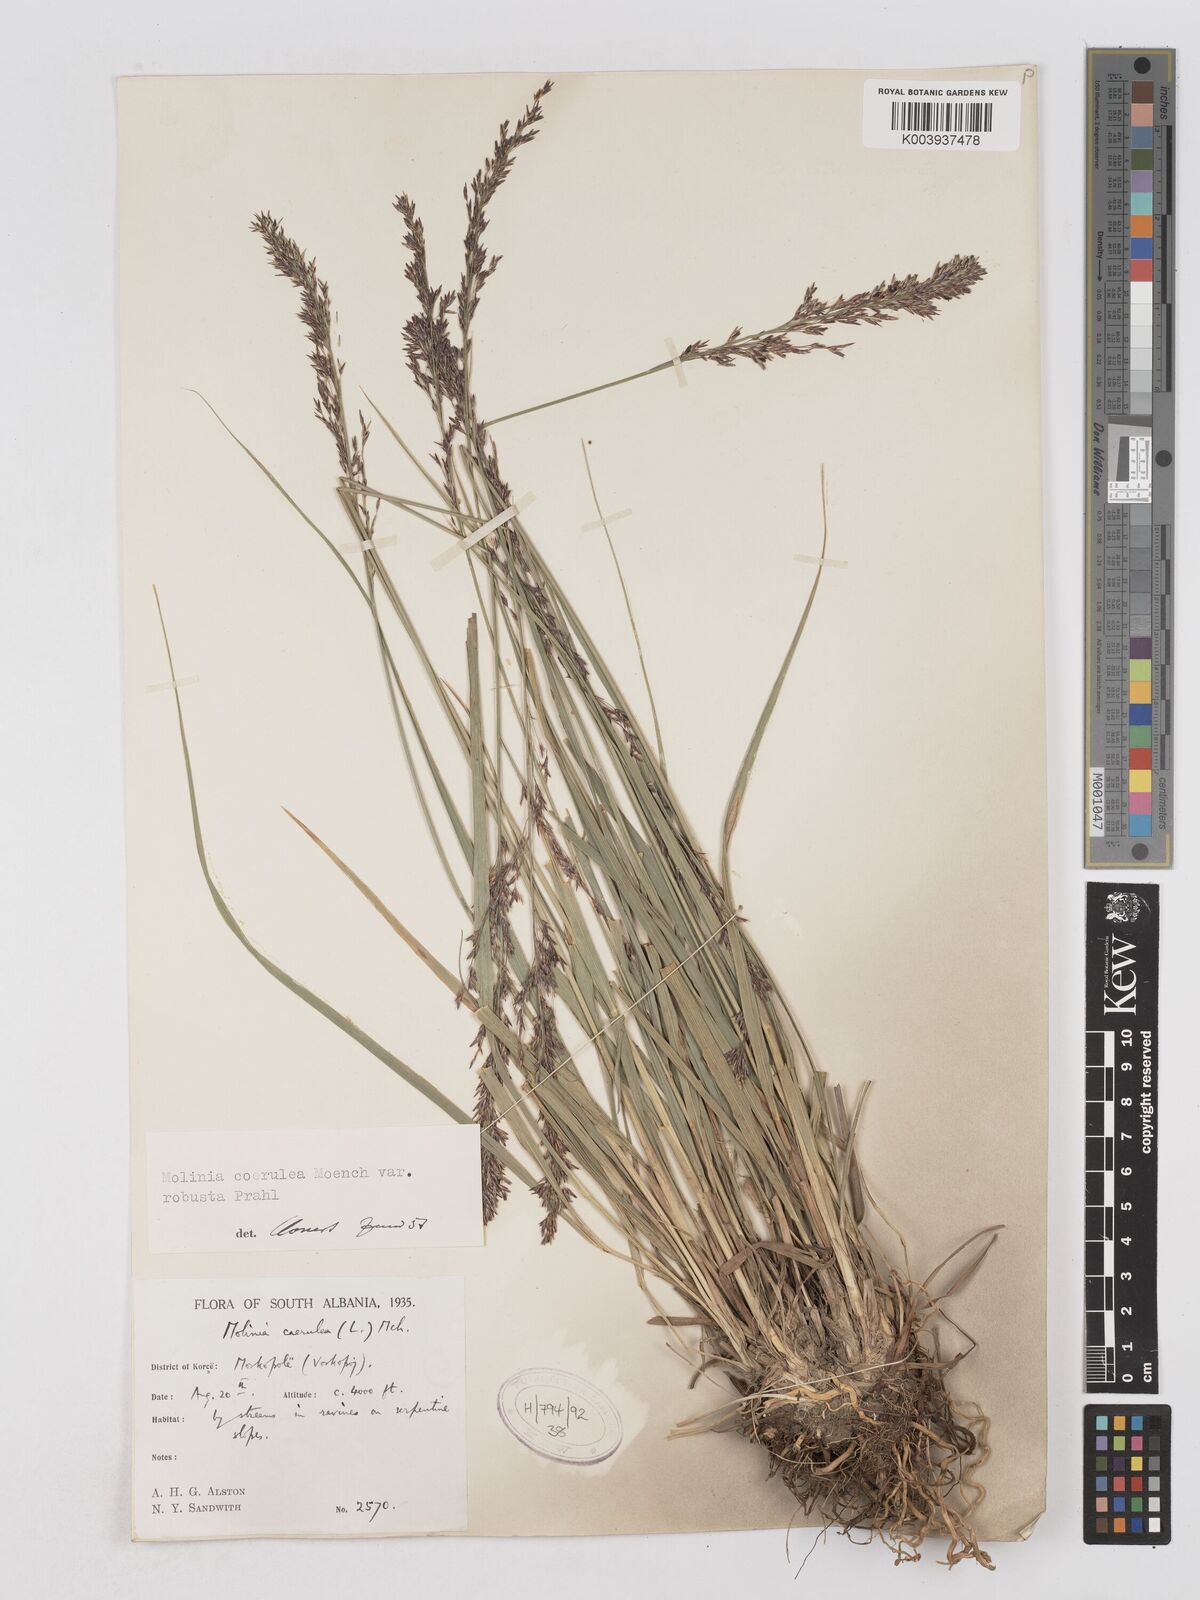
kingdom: Plantae
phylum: Tracheophyta
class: Liliopsida
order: Poales
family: Poaceae
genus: Molinia
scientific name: Molinia caerulea
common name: Purple moor-grass
